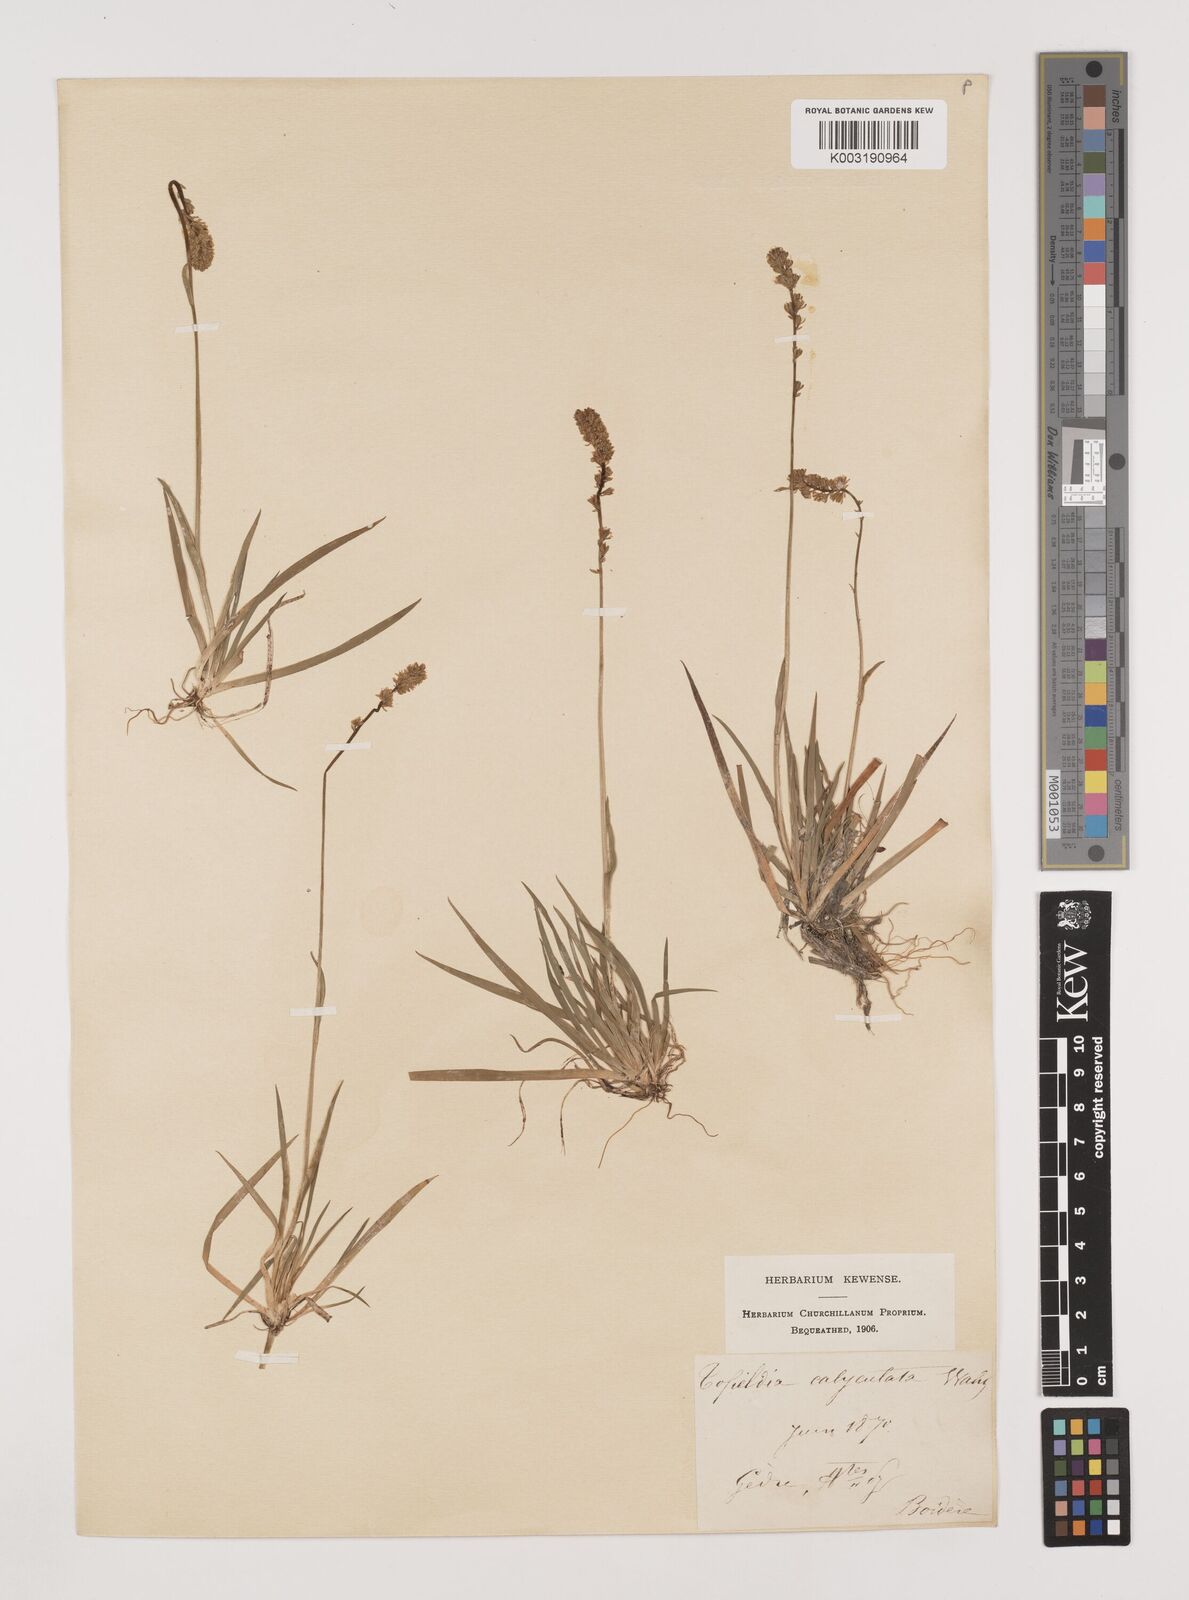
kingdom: Plantae
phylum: Tracheophyta
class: Liliopsida
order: Alismatales
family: Tofieldiaceae
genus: Tofieldia
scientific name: Tofieldia calyculata
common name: German-asphodel
